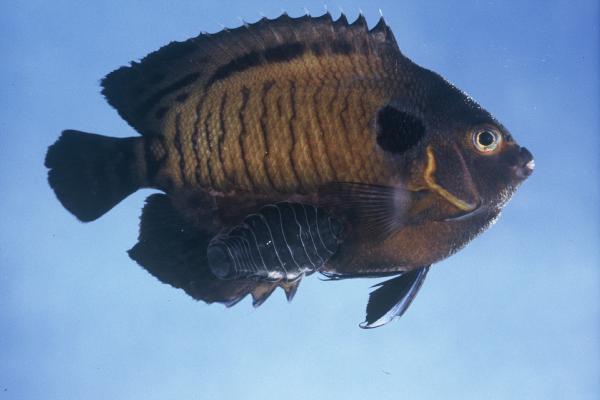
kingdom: Animalia
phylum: Chordata
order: Perciformes
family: Pomacanthidae
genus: Centropyge
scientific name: Centropyge multispinis
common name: Many-spined angelfish
